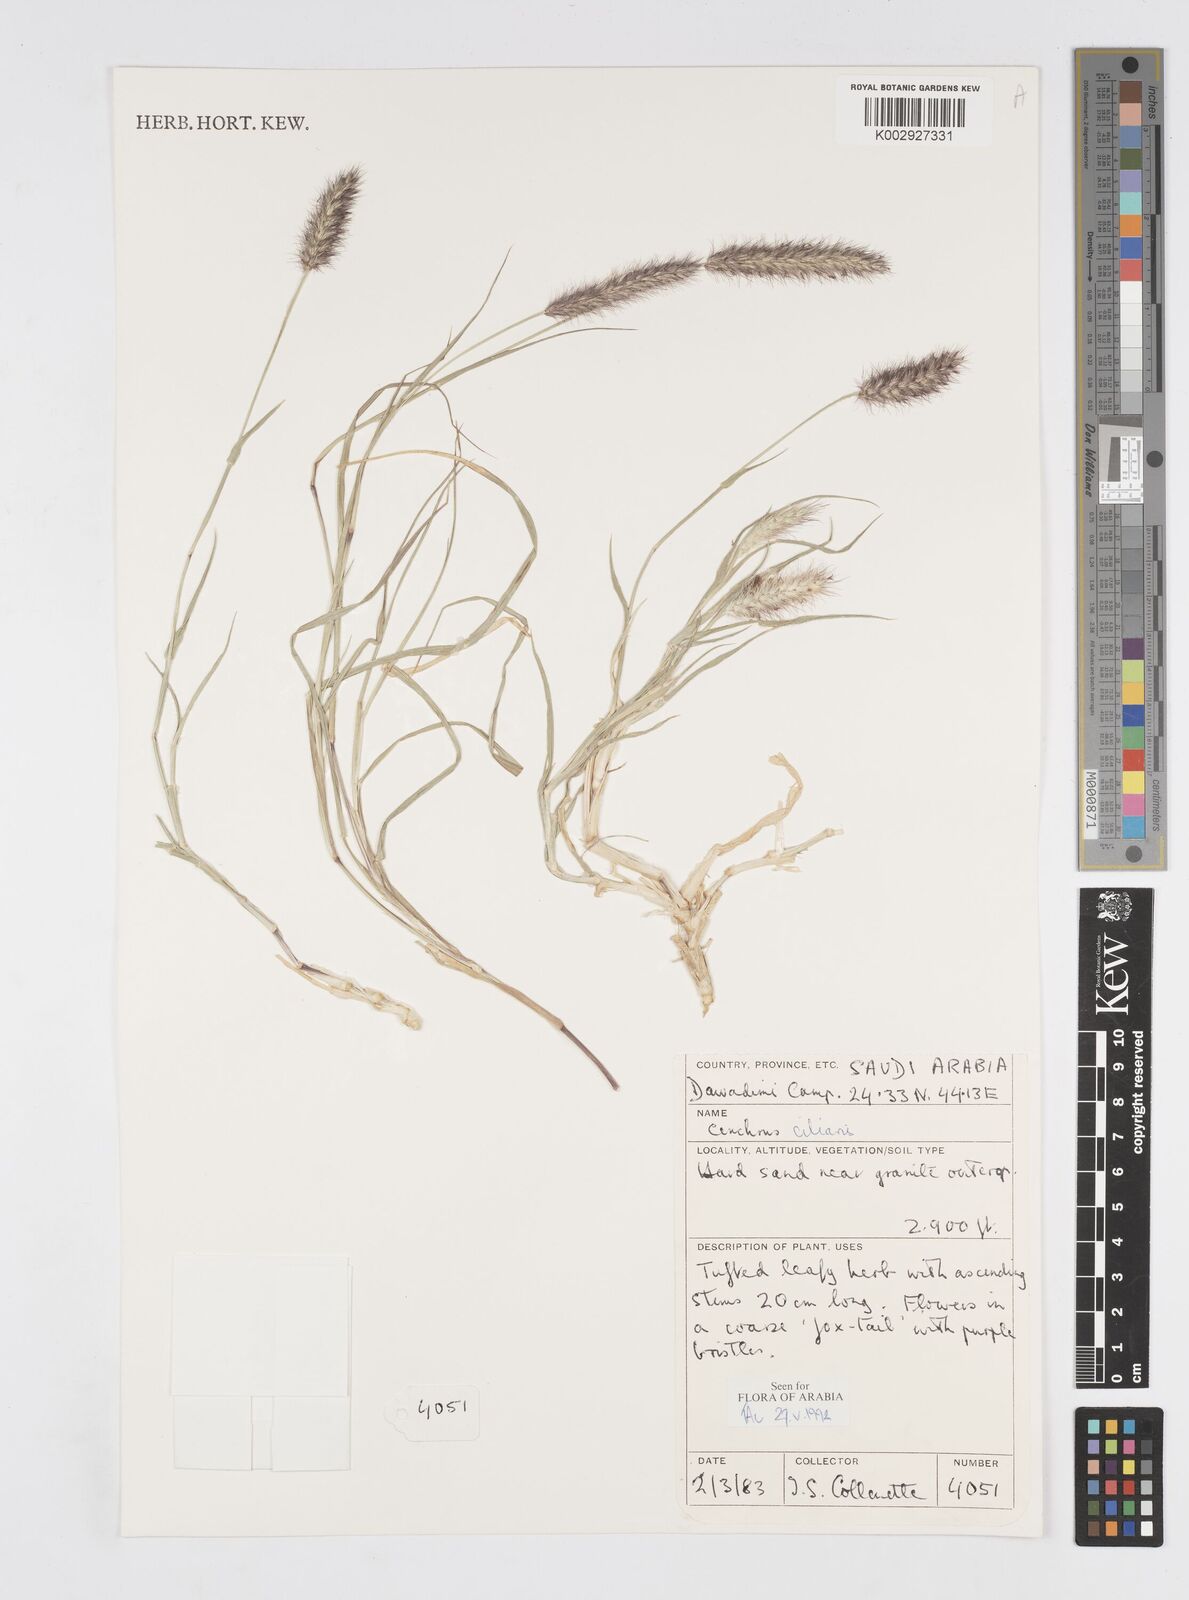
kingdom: Plantae
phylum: Tracheophyta
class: Liliopsida
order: Poales
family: Poaceae
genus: Cenchrus
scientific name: Cenchrus ciliaris
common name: Buffelgrass
